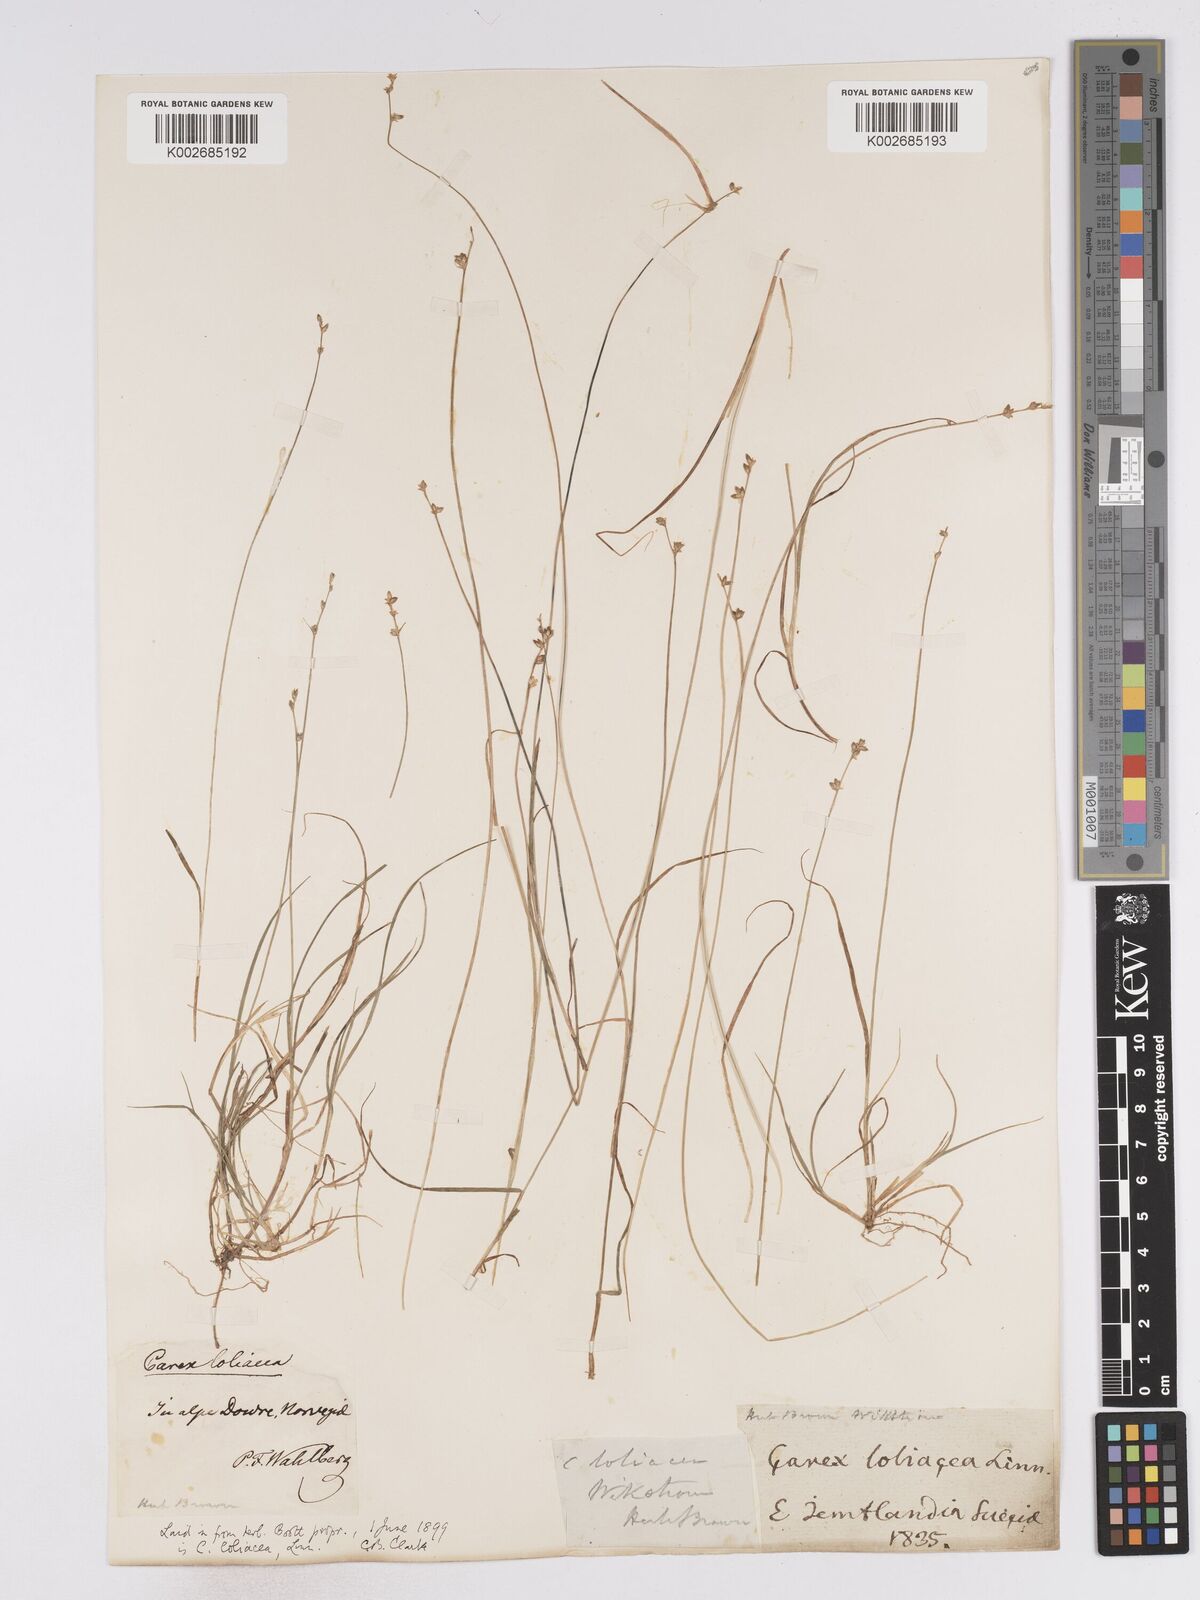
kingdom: Plantae
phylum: Tracheophyta
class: Liliopsida
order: Poales
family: Cyperaceae
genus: Carex
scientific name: Carex loliacea
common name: Ryegrass sedge
